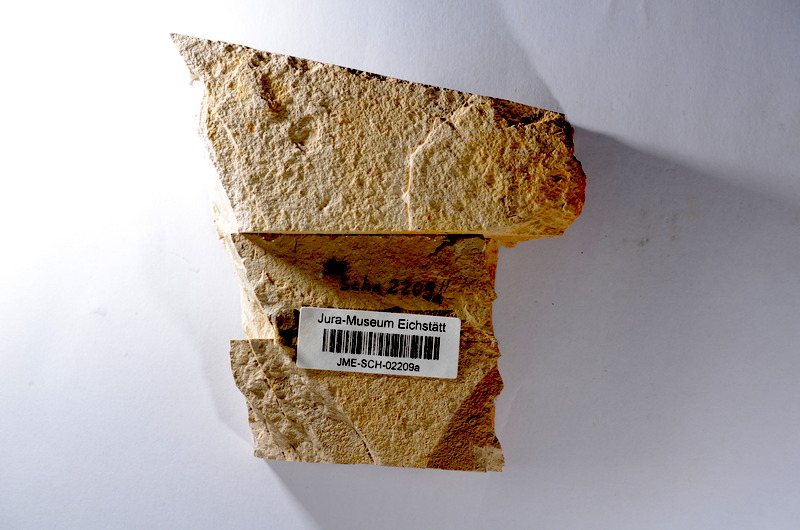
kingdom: Animalia
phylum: Chordata
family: Ascalaboidae
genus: Tharsis
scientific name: Tharsis dubius
